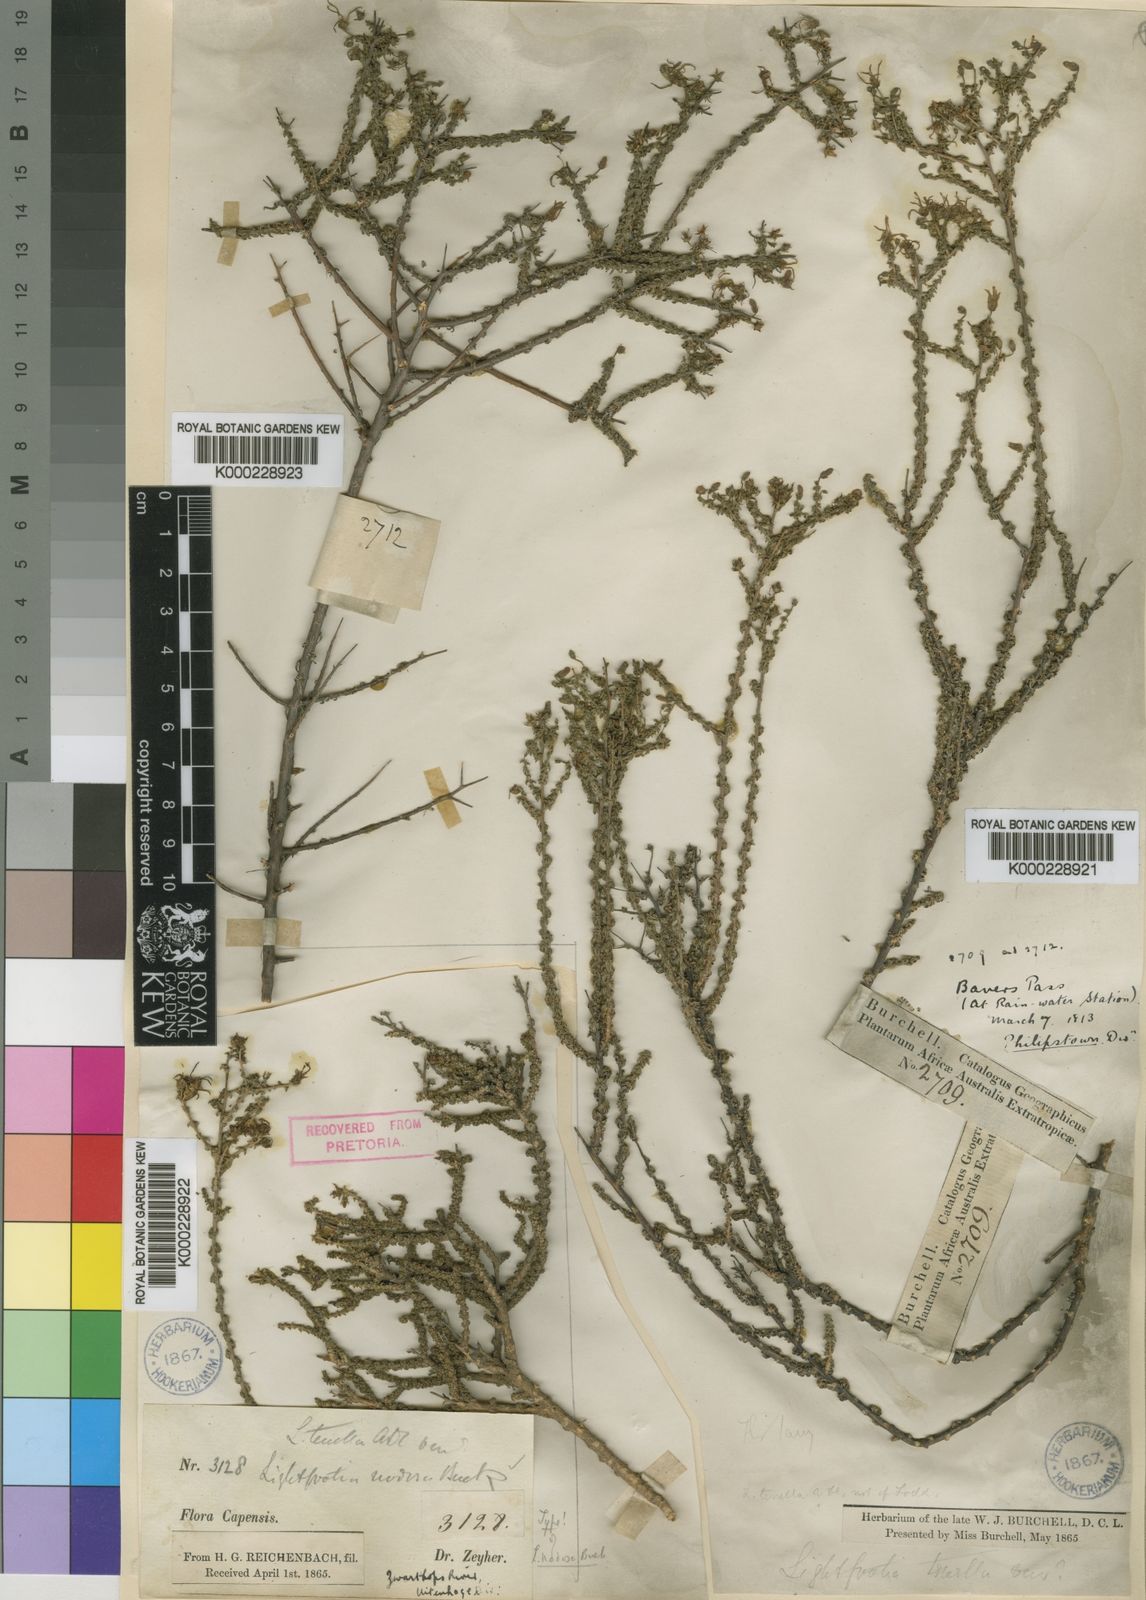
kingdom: Plantae
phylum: Tracheophyta
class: Magnoliopsida
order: Malvales
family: Bixaceae
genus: Lightfootia
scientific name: Lightfootia
